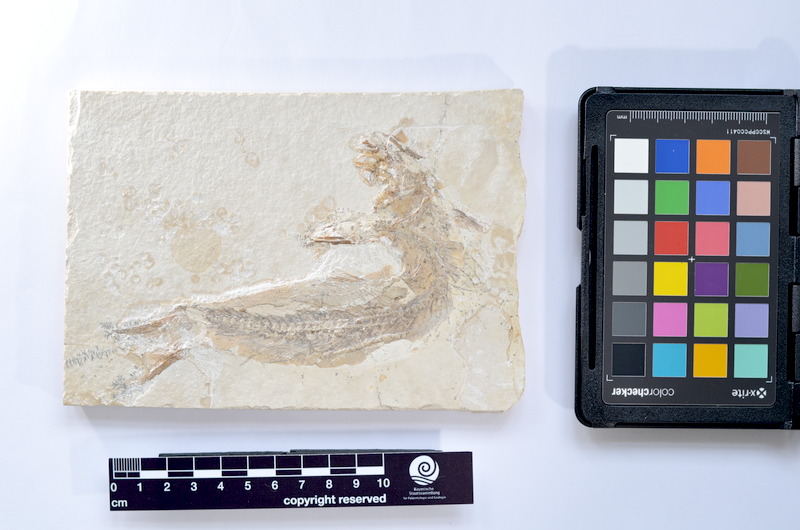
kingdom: Animalia
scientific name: Animalia
